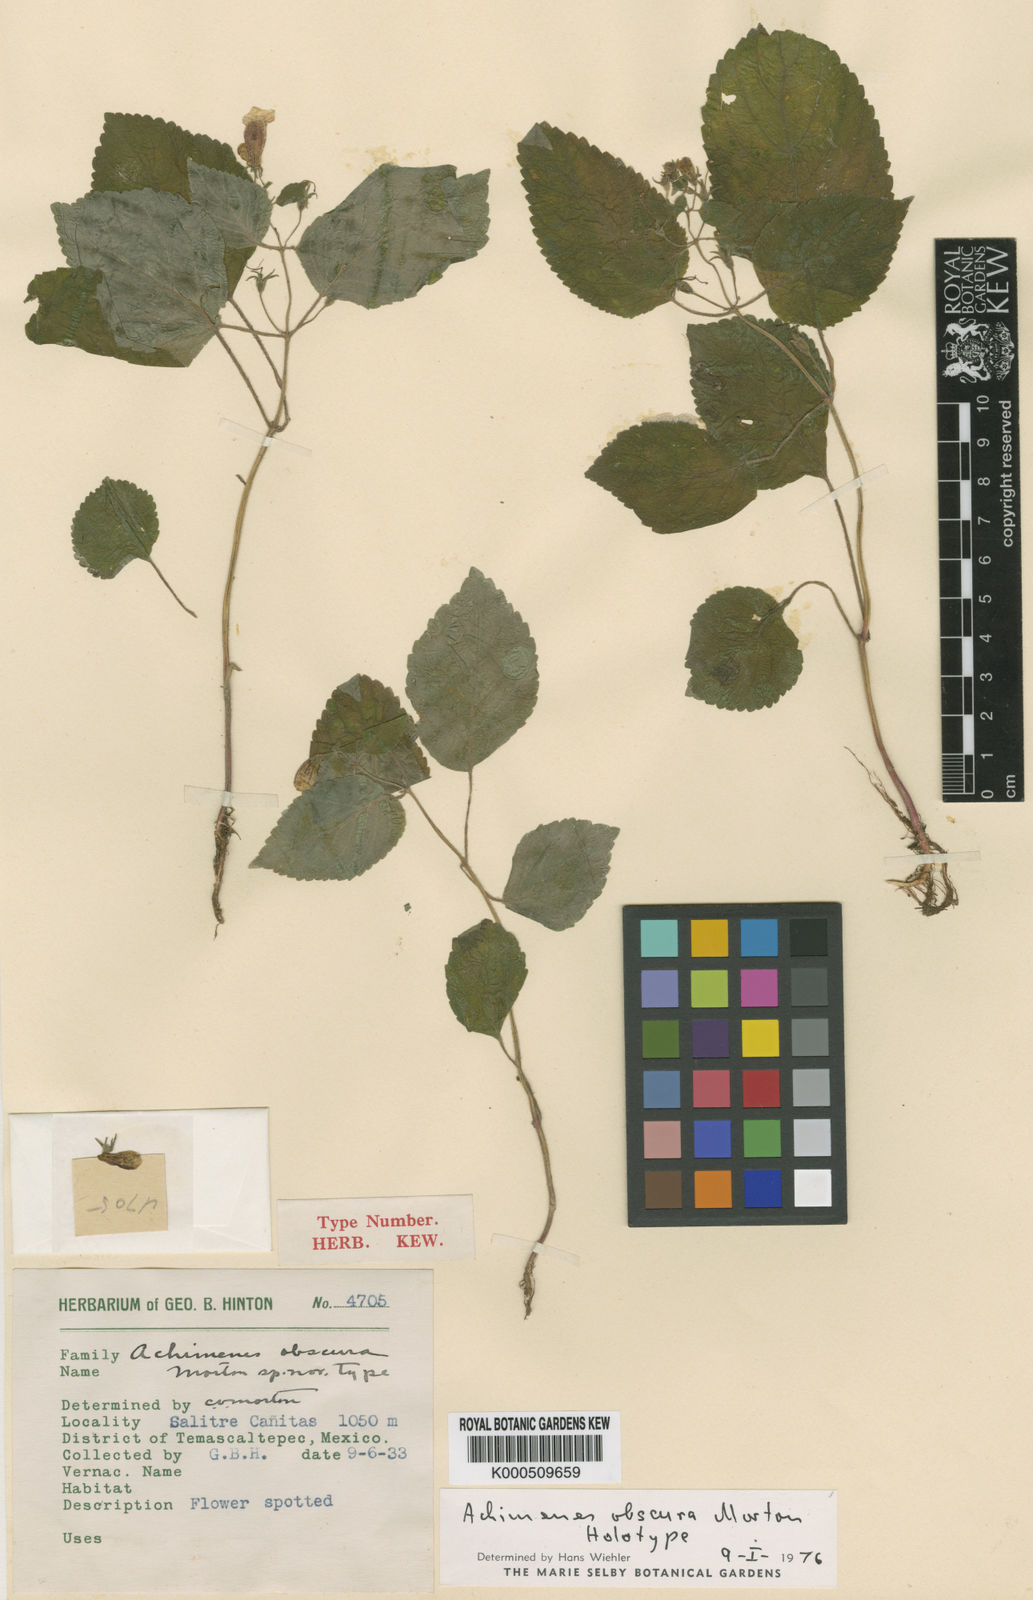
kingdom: Plantae
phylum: Tracheophyta
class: Magnoliopsida
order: Lamiales
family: Gesneriaceae
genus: Achimenes
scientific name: Achimenes obscura
